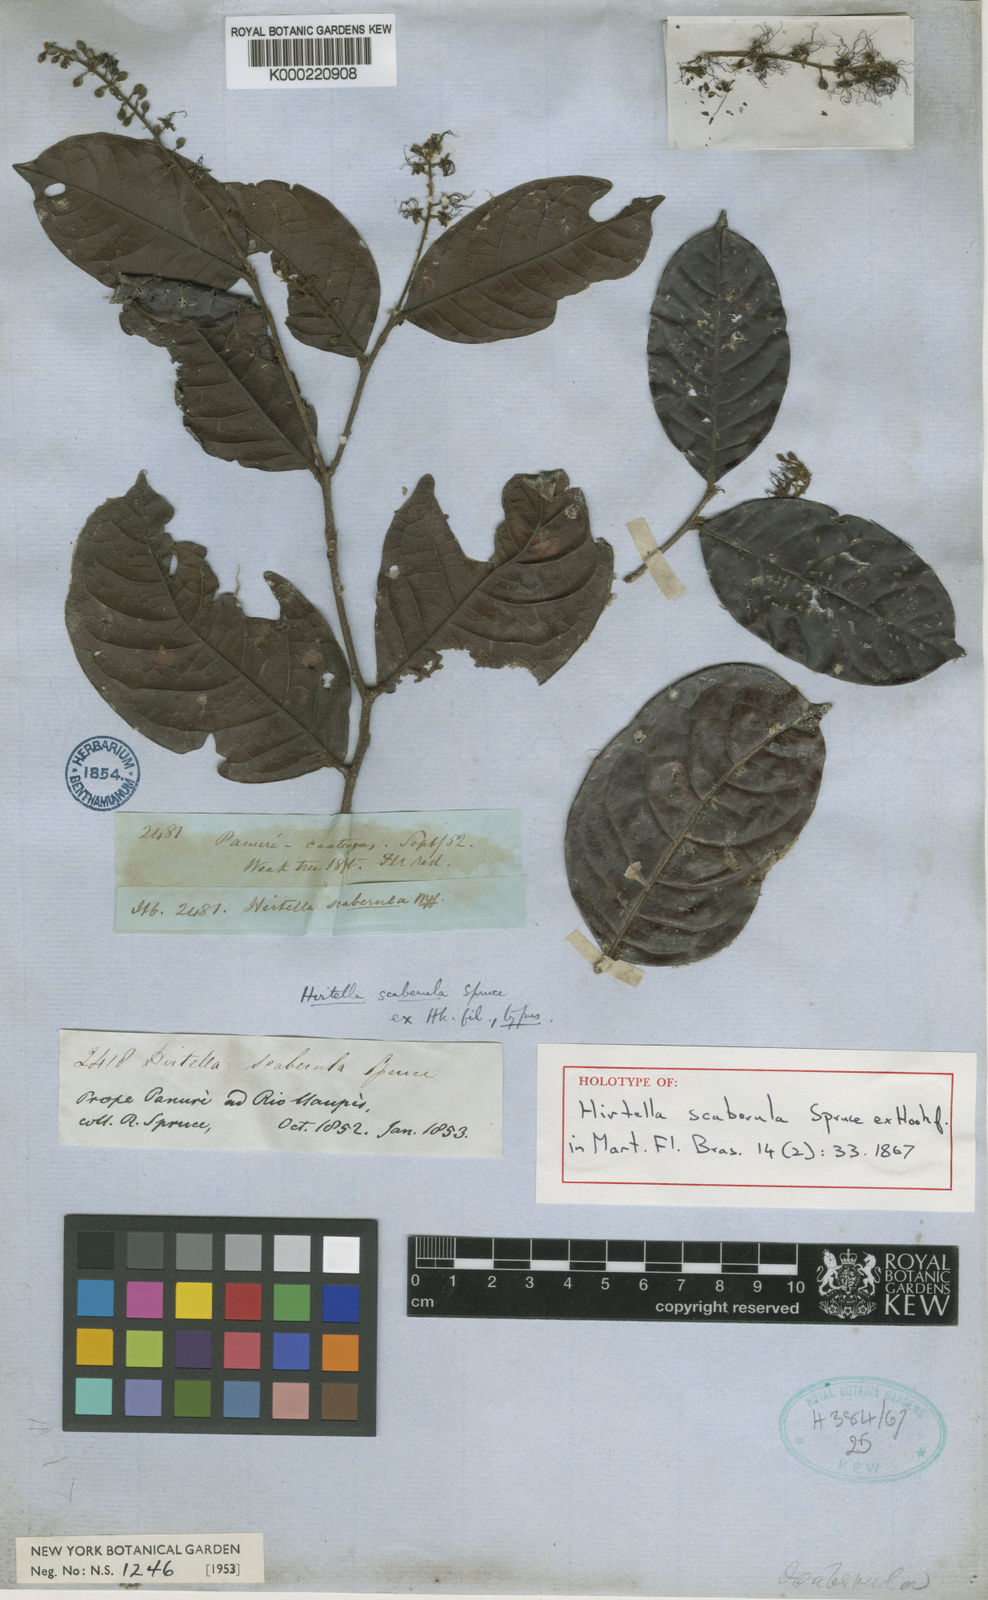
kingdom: Plantae
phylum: Tracheophyta
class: Magnoliopsida
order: Malpighiales
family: Chrysobalanaceae
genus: Hirtella
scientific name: Hirtella scaberula
